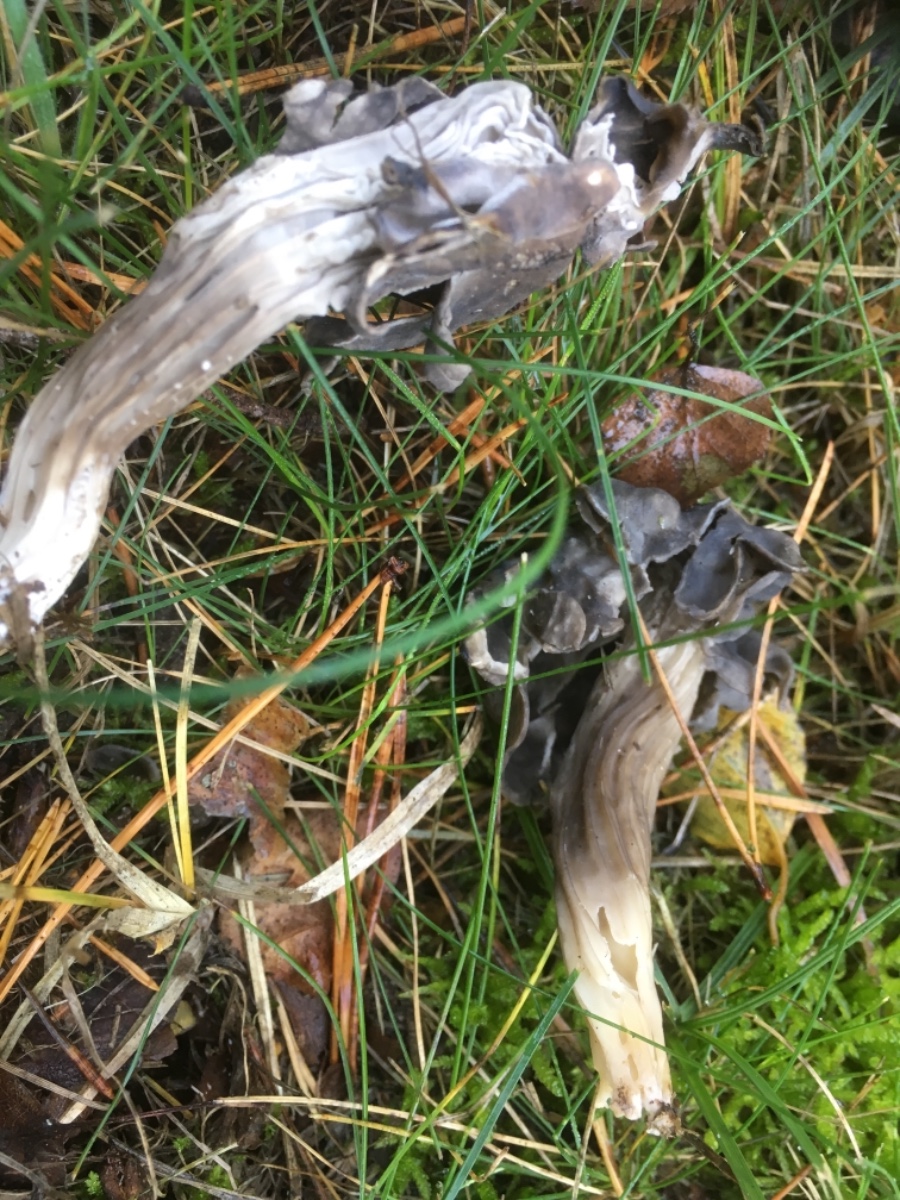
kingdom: Fungi
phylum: Ascomycota
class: Pezizomycetes
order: Pezizales
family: Helvellaceae
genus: Helvella
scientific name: Helvella lacunosa
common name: grubet foldhat
